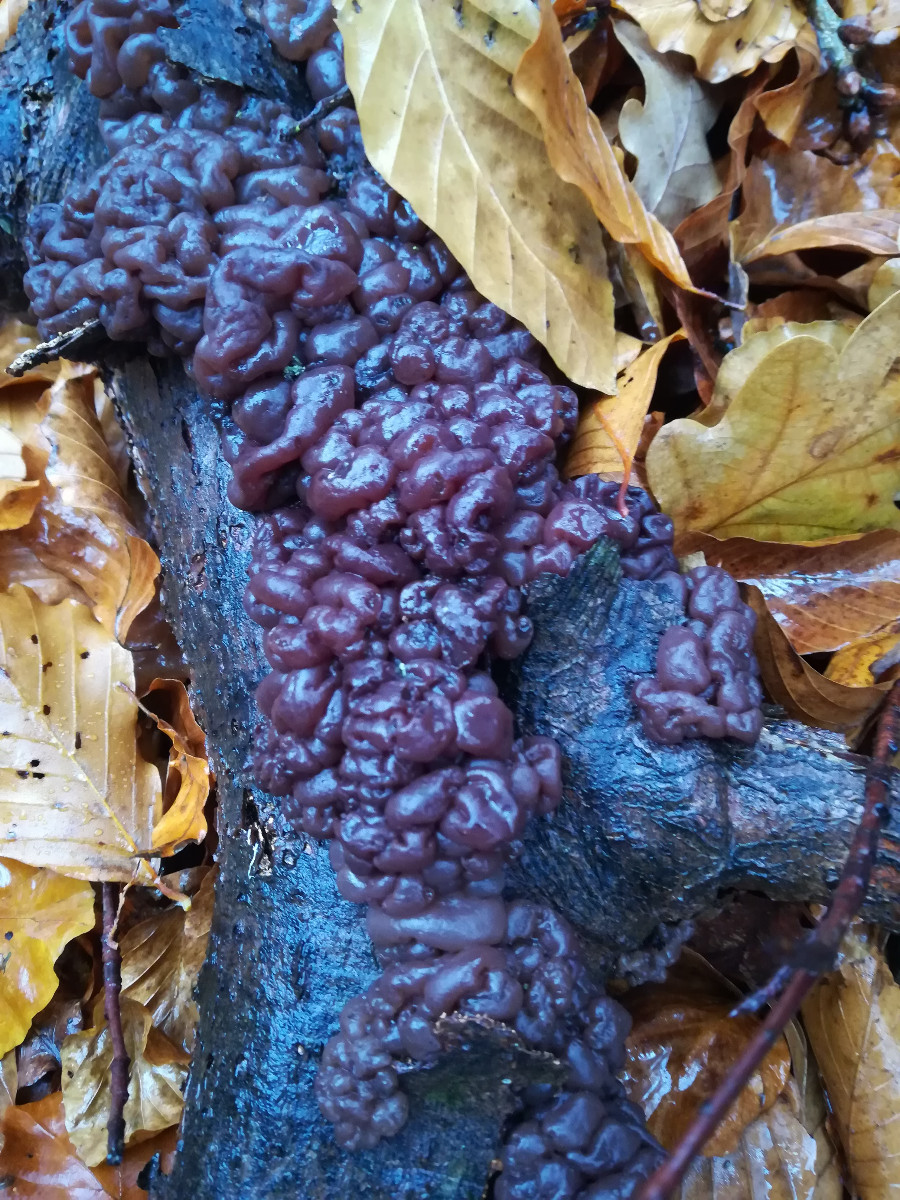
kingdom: Fungi
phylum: Ascomycota
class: Leotiomycetes
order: Helotiales
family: Gelatinodiscaceae
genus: Ascotremella
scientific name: Ascotremella faginea
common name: hjerne-bævreskive
